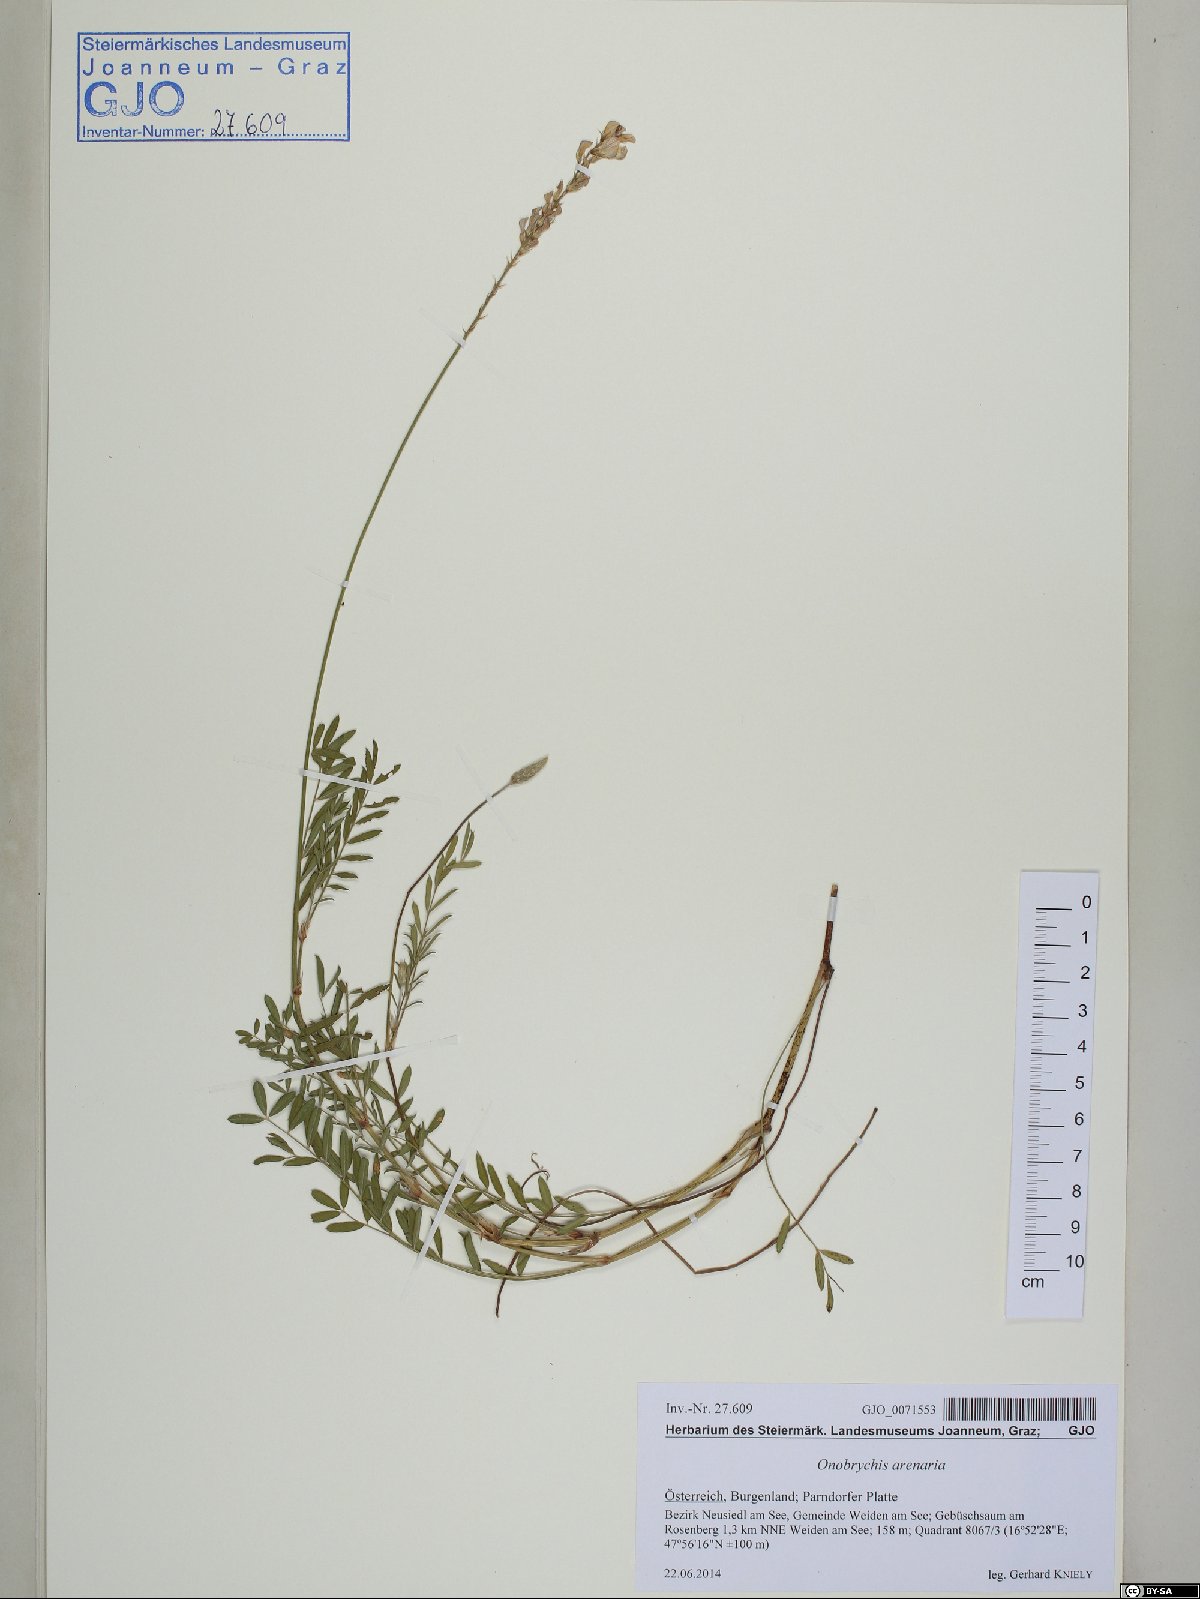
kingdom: Plantae
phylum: Tracheophyta
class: Magnoliopsida
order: Fabales
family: Fabaceae
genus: Onobrychis
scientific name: Onobrychis arenaria
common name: Sand esparcet
